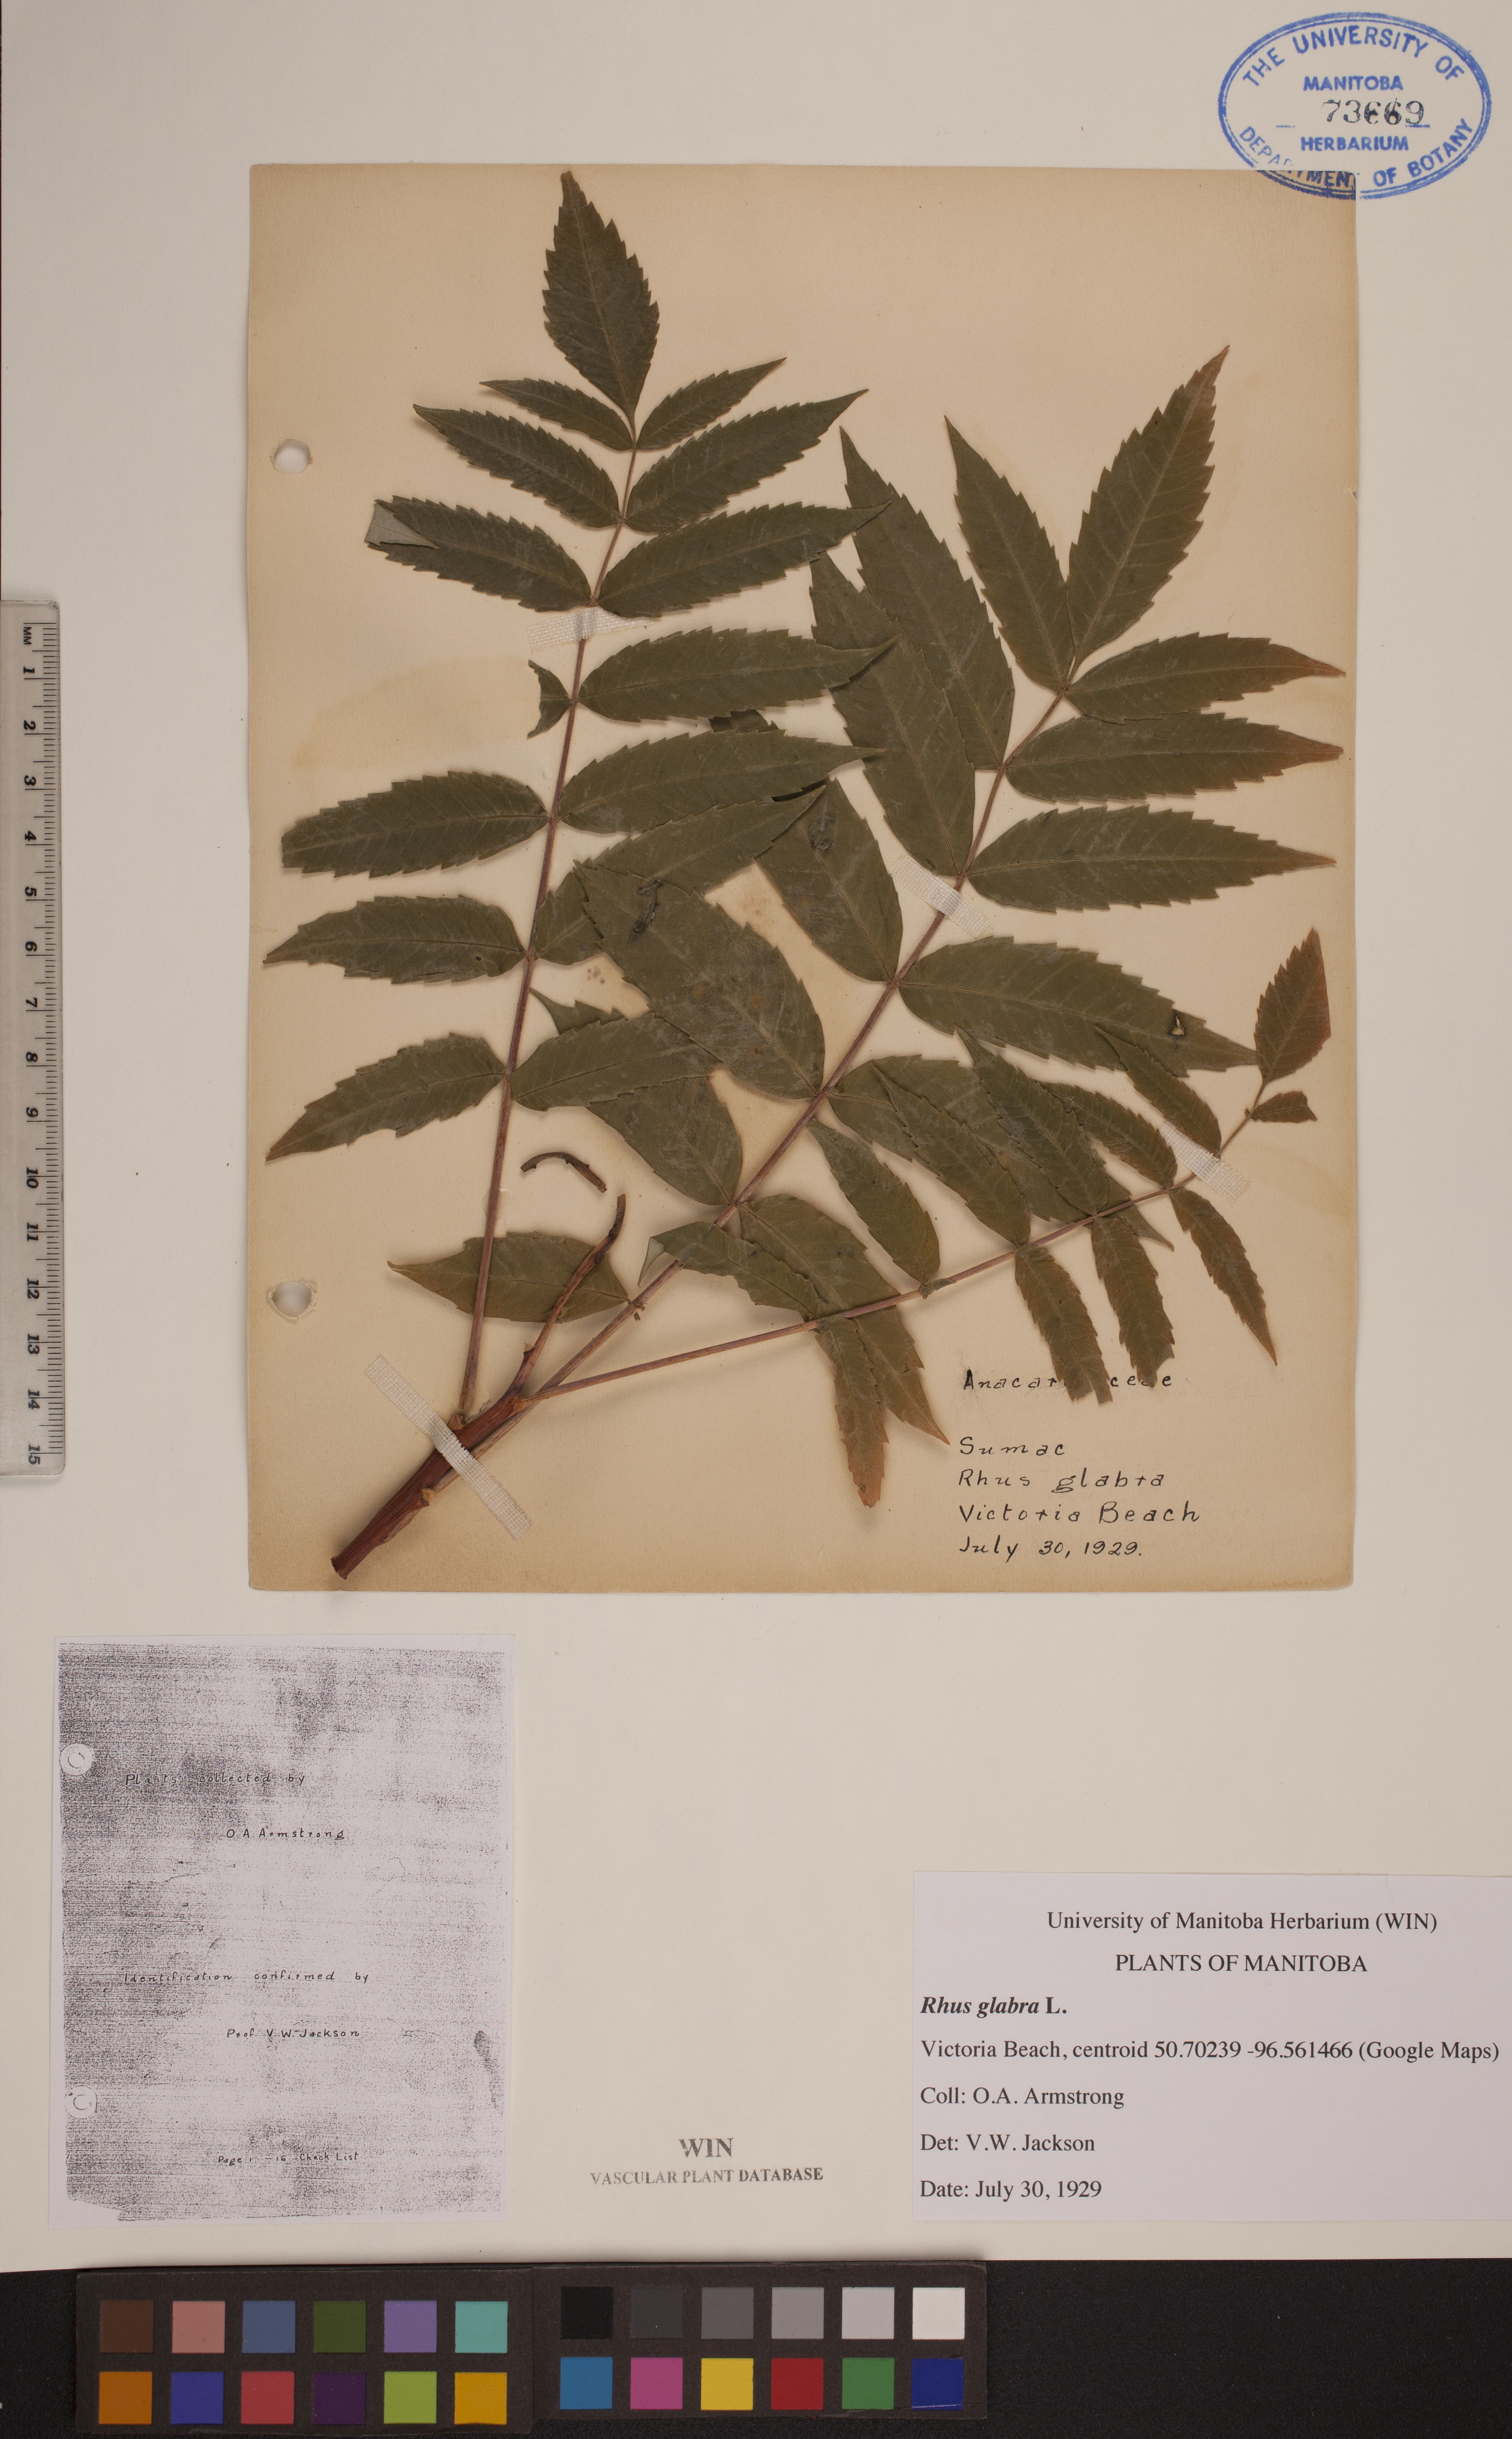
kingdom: Plantae
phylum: Tracheophyta
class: Magnoliopsida
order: Sapindales
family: Anacardiaceae
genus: Rhus
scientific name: Rhus glabra
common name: Scarlet sumac
